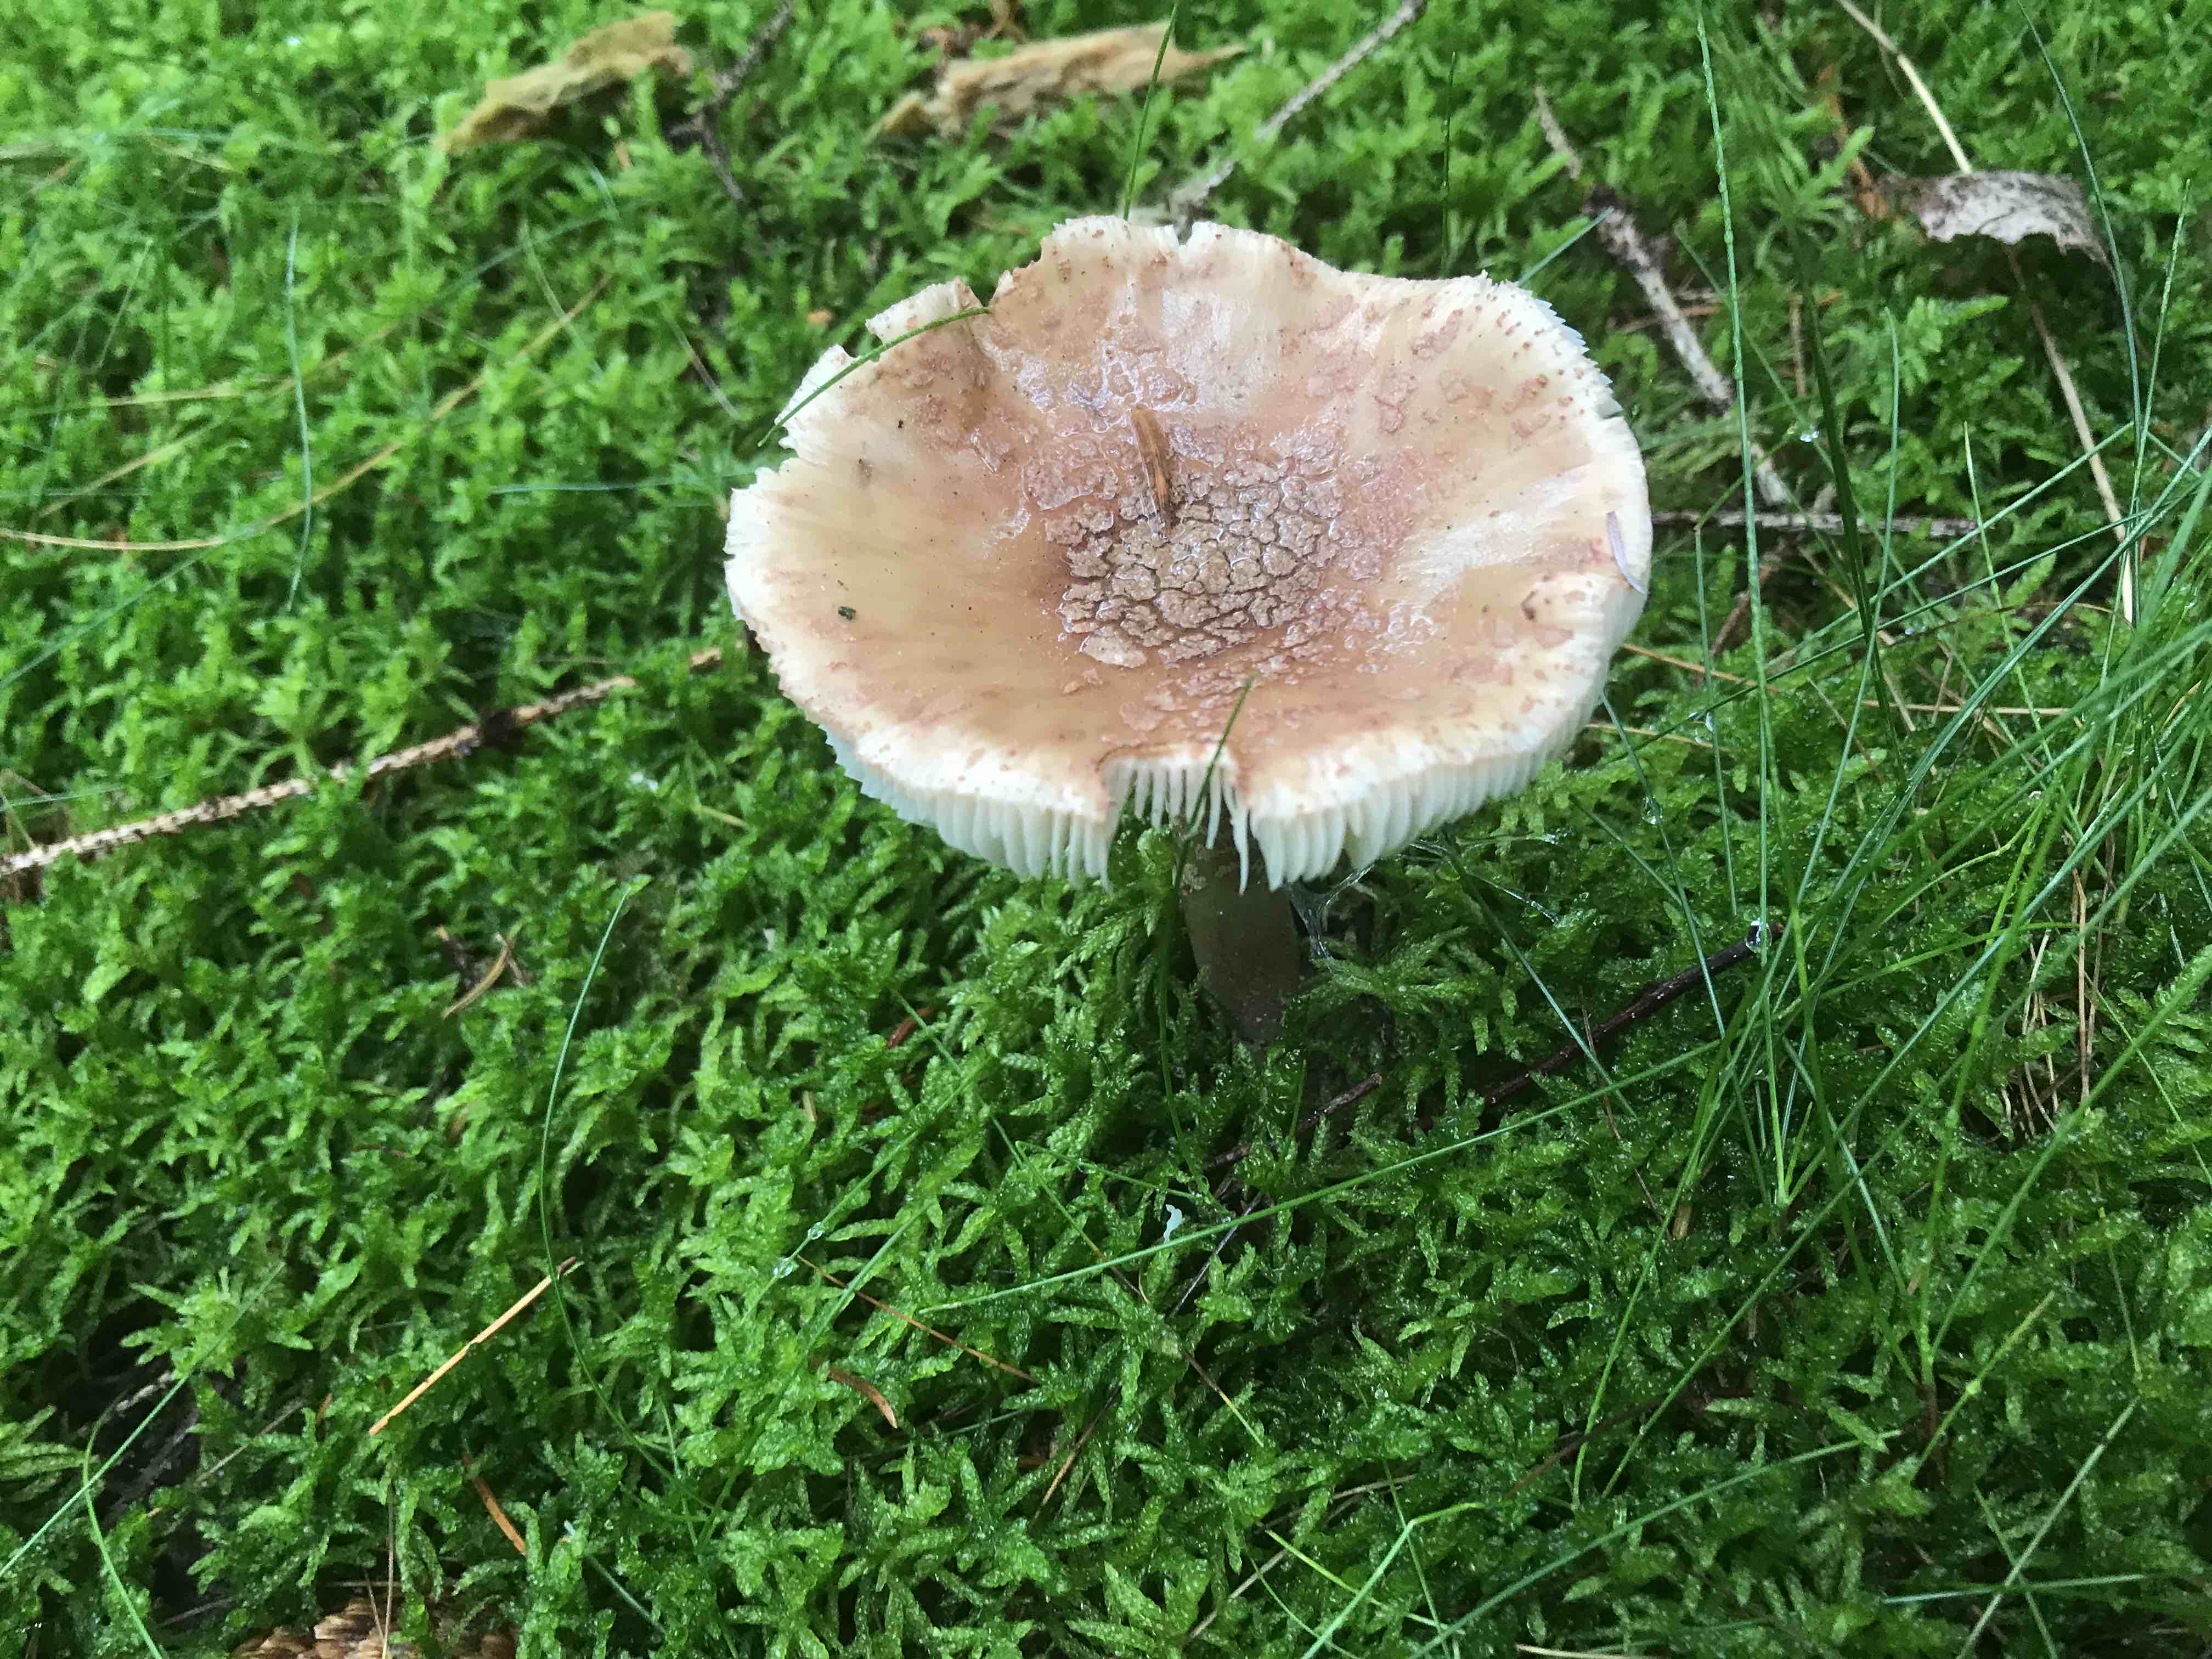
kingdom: Fungi
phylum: Basidiomycota
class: Agaricomycetes
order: Agaricales
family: Amanitaceae
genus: Amanita
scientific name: Amanita rubescens
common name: rødmende fluesvamp
